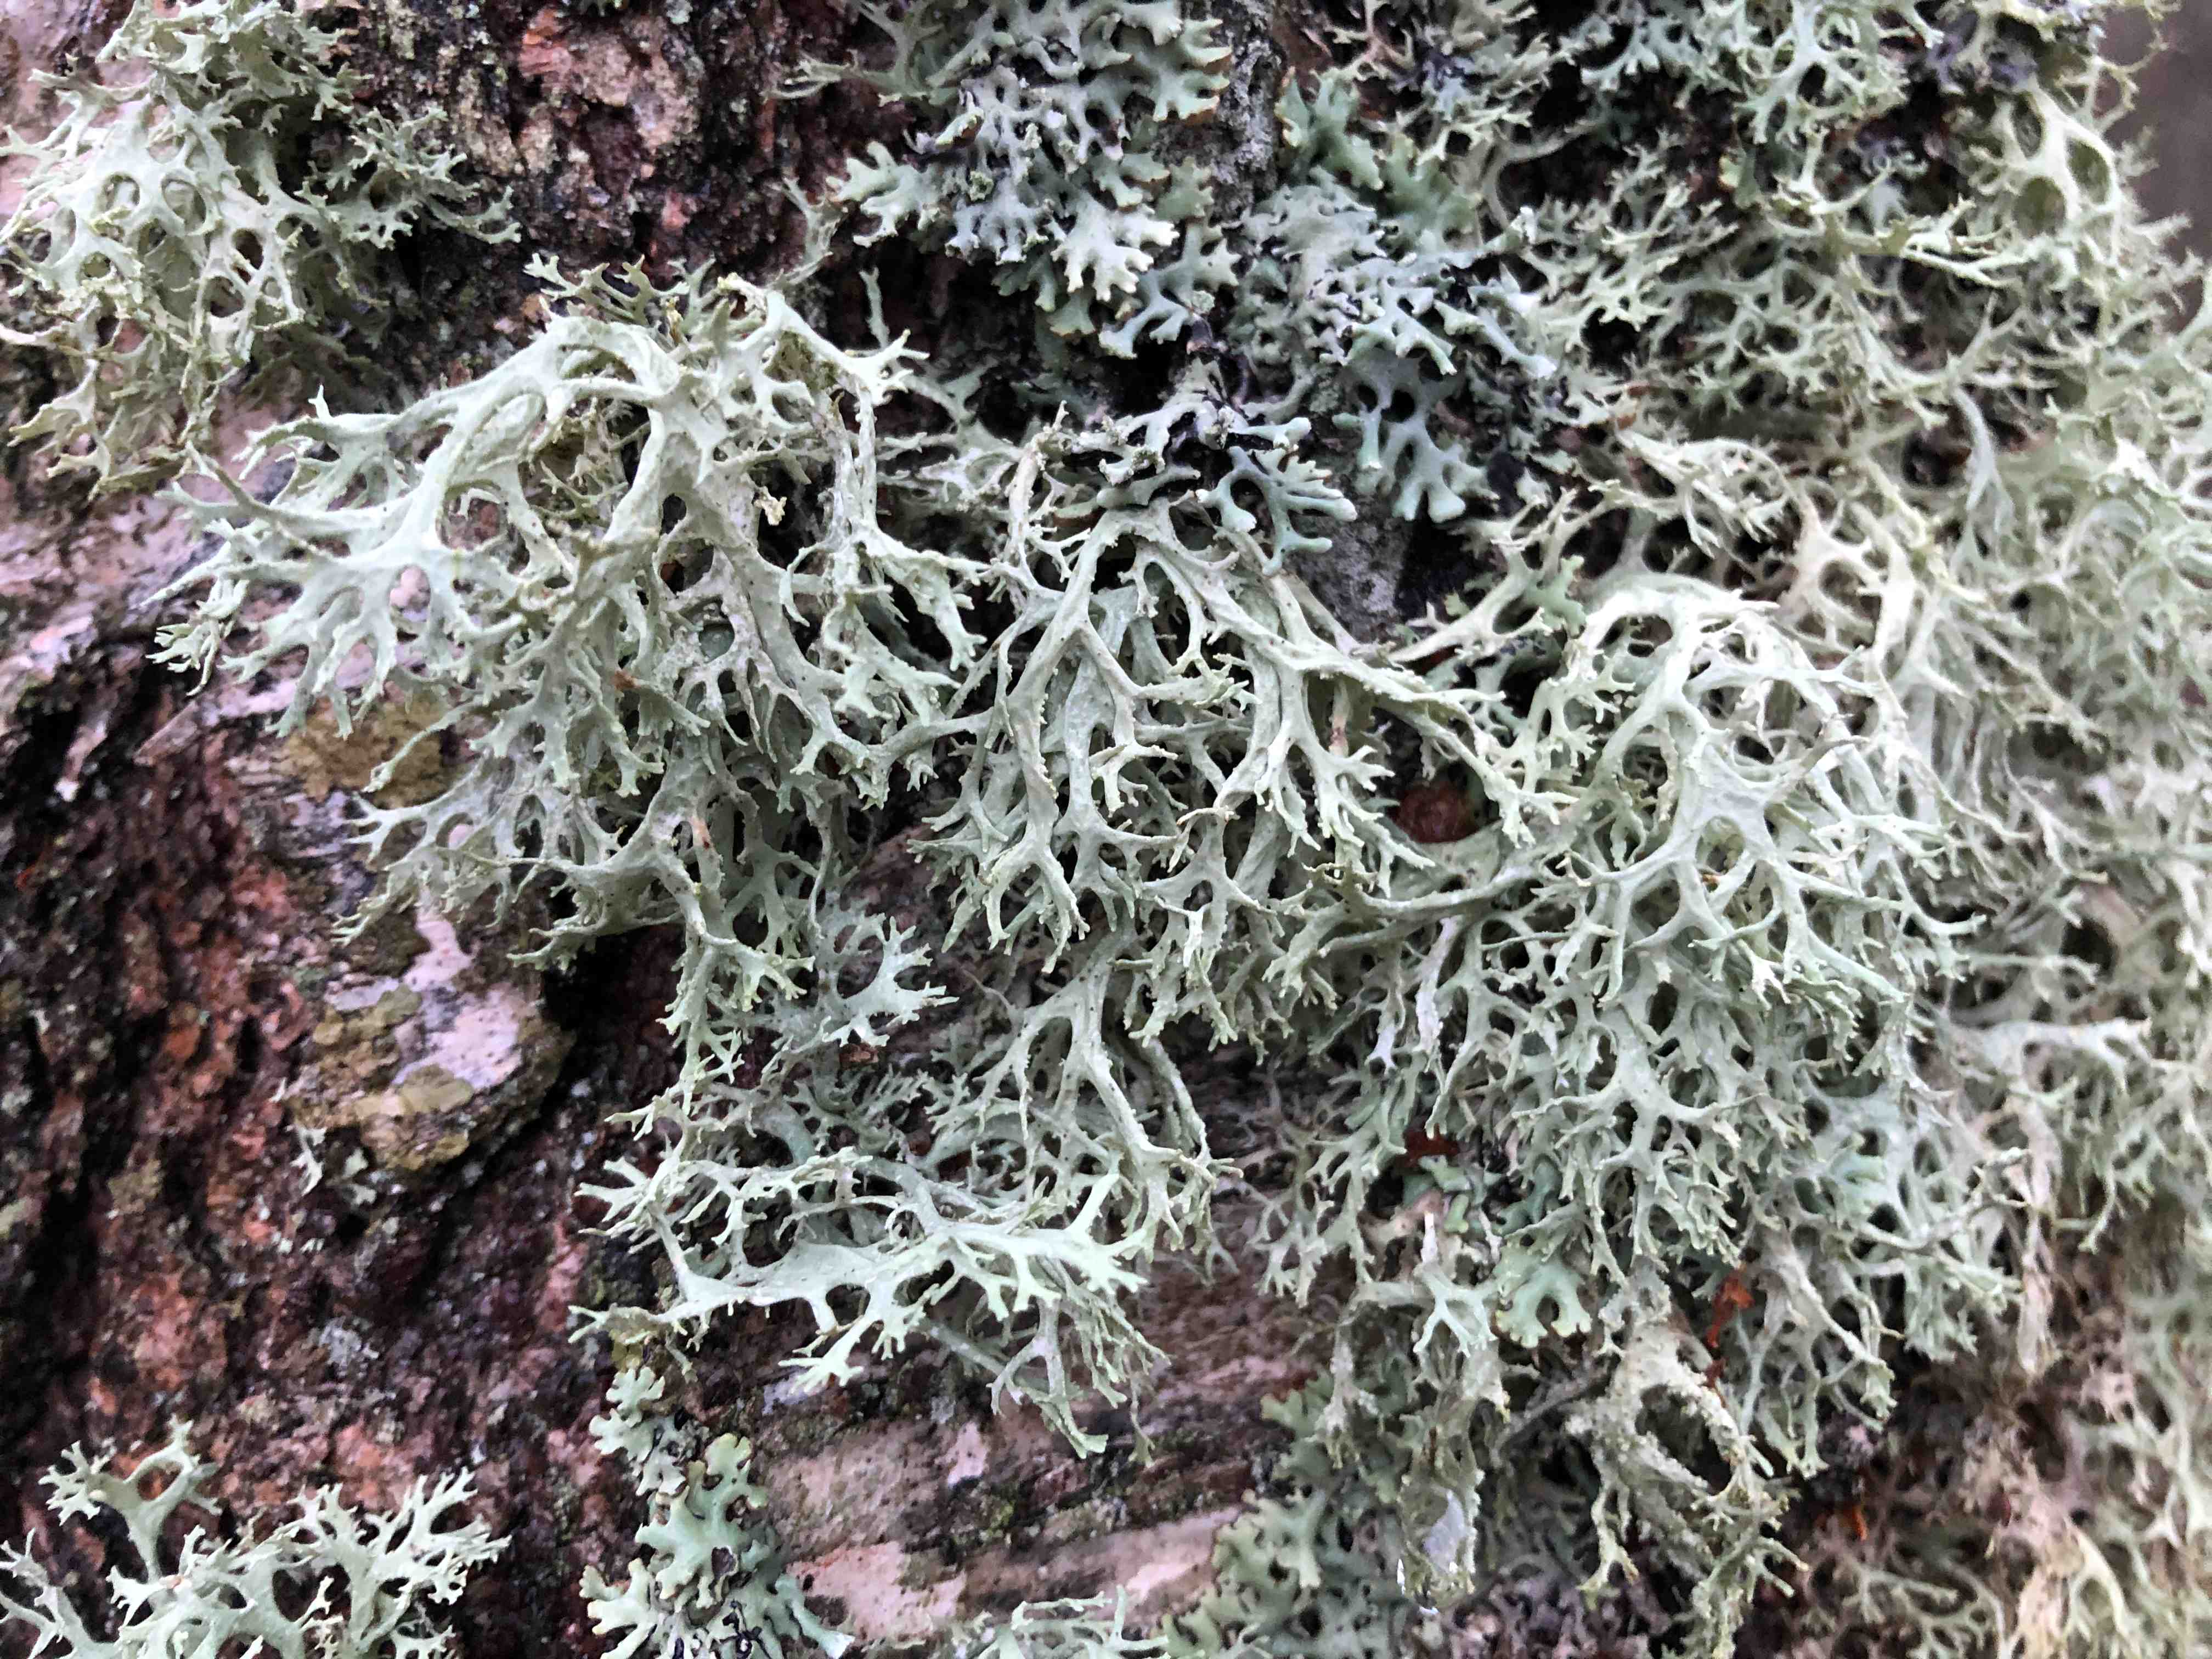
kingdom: Fungi
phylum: Ascomycota
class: Lecanoromycetes
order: Lecanorales
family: Parmeliaceae
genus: Evernia
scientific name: Evernia prunastri
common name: almindelig slåenlav
